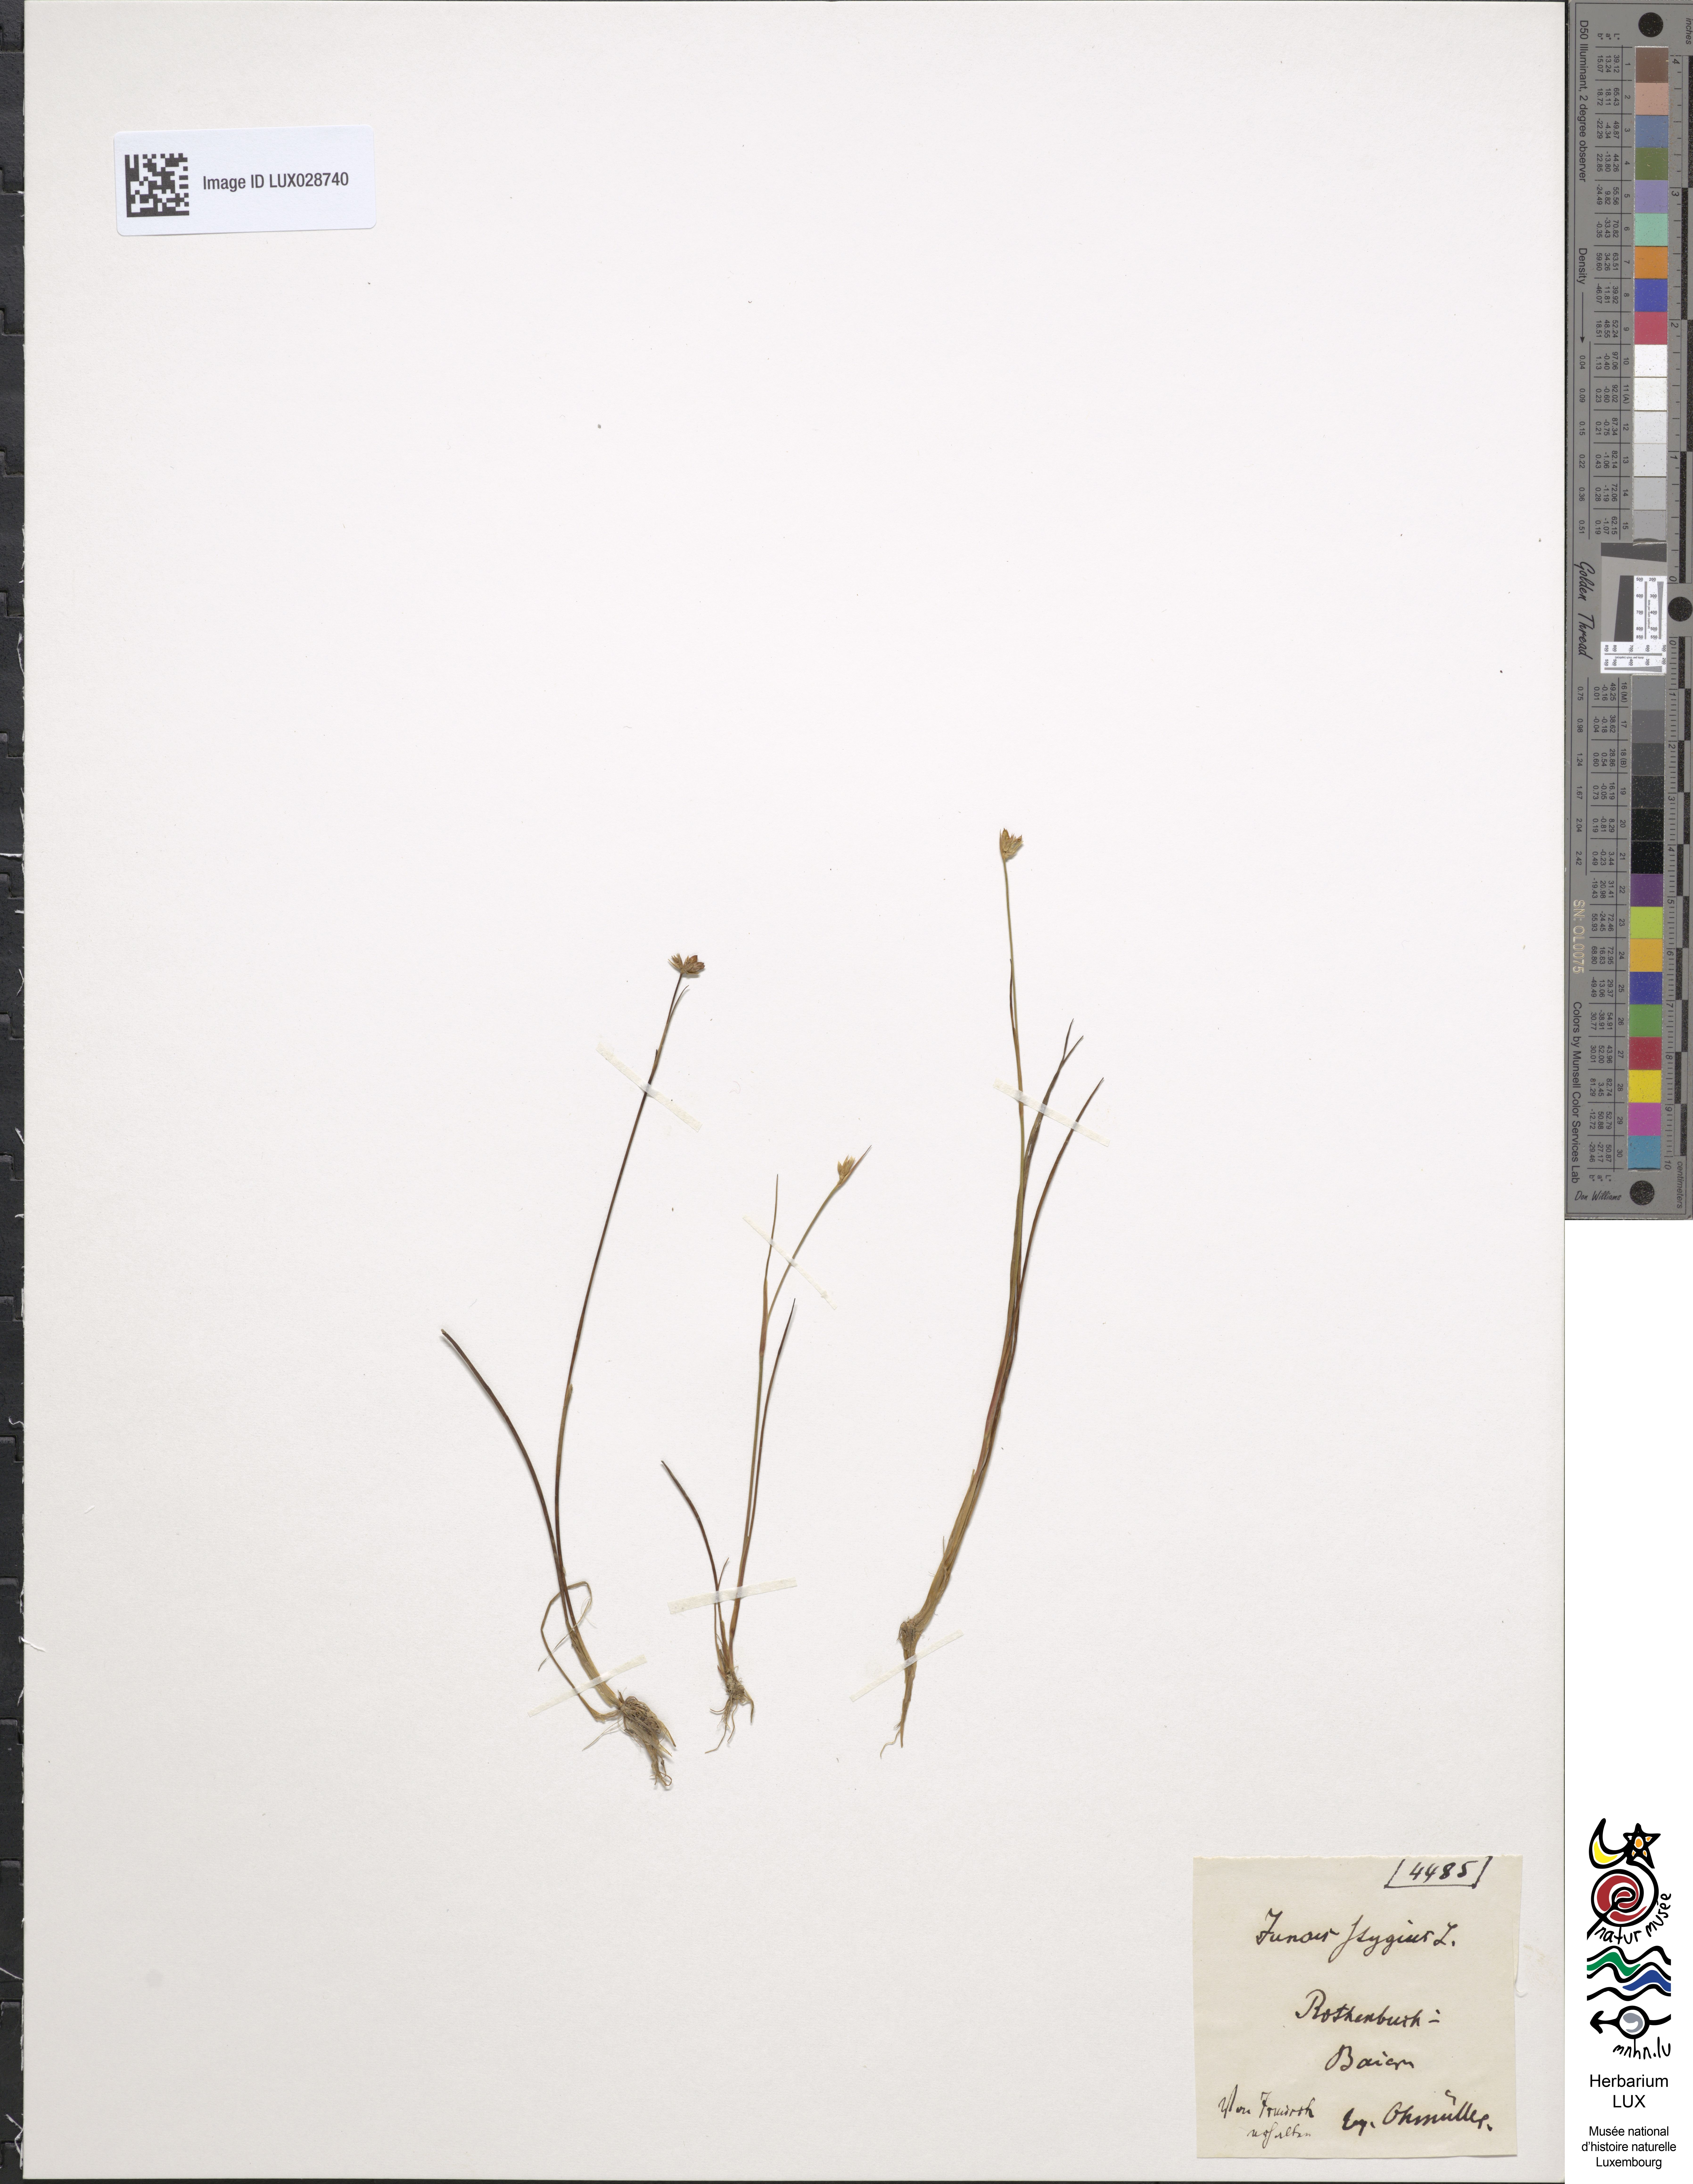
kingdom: Plantae
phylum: Tracheophyta
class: Liliopsida
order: Poales
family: Juncaceae
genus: Juncus
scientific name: Juncus stygius
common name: Bog rush
